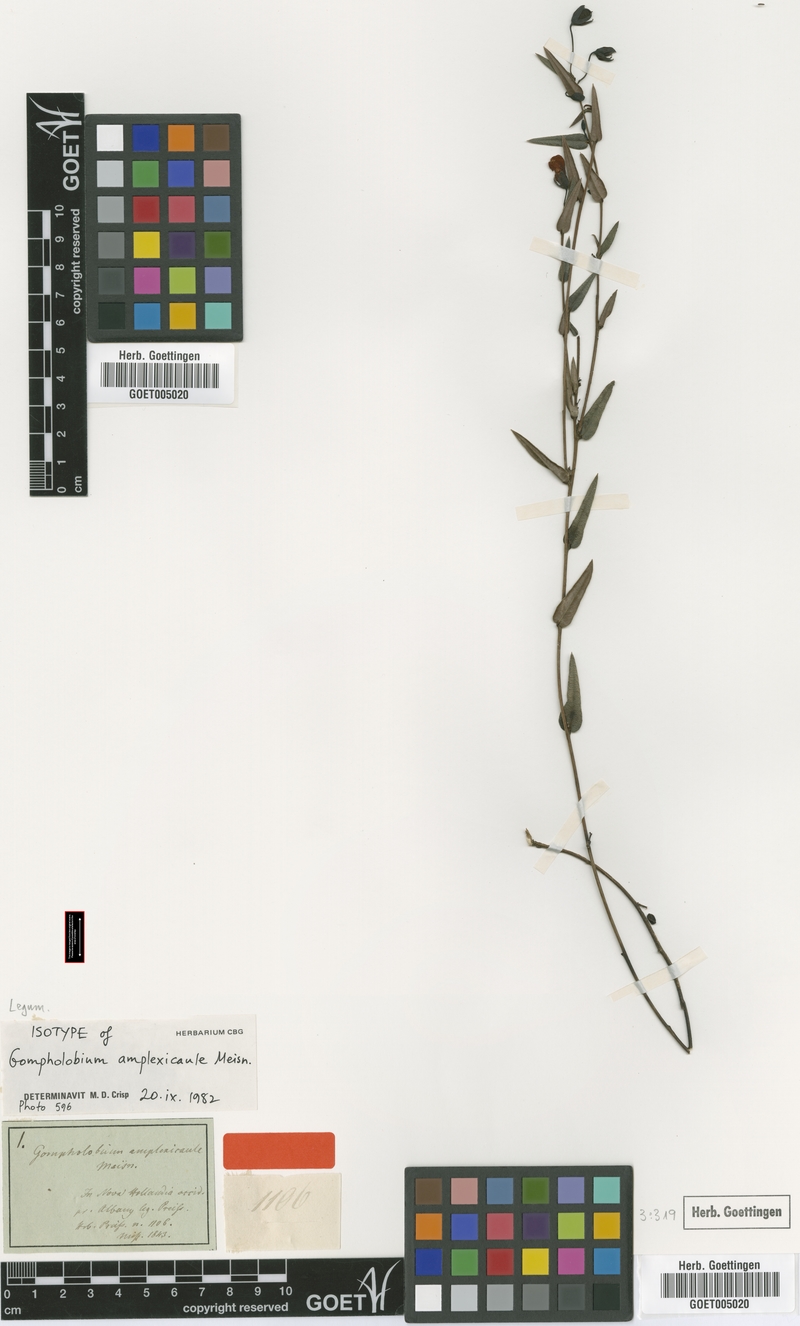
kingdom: Plantae
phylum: Tracheophyta
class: Magnoliopsida
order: Fabales
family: Fabaceae
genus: Gompholobium
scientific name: Gompholobium ovatum
